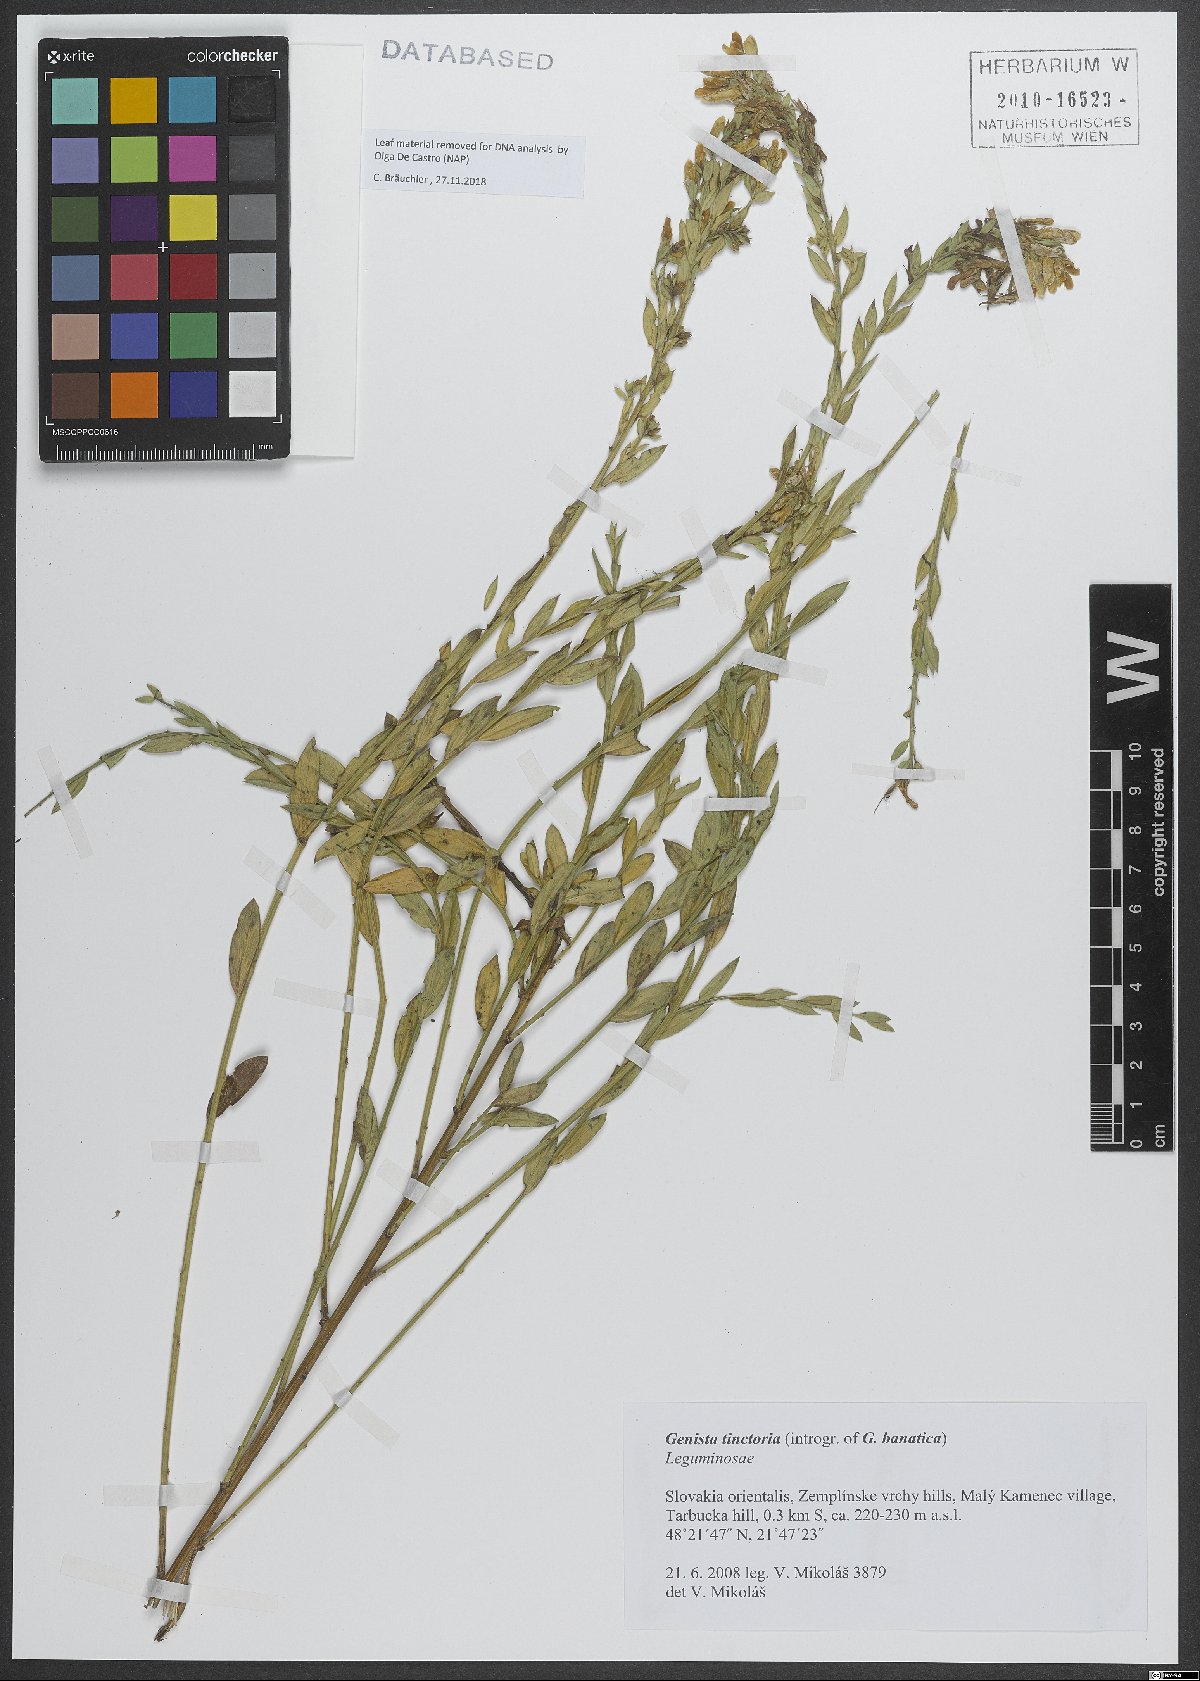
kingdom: Plantae
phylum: Tracheophyta
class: Magnoliopsida
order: Fabales
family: Fabaceae
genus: Genista
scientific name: Genista tinctoria
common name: Dyer's greenweed
